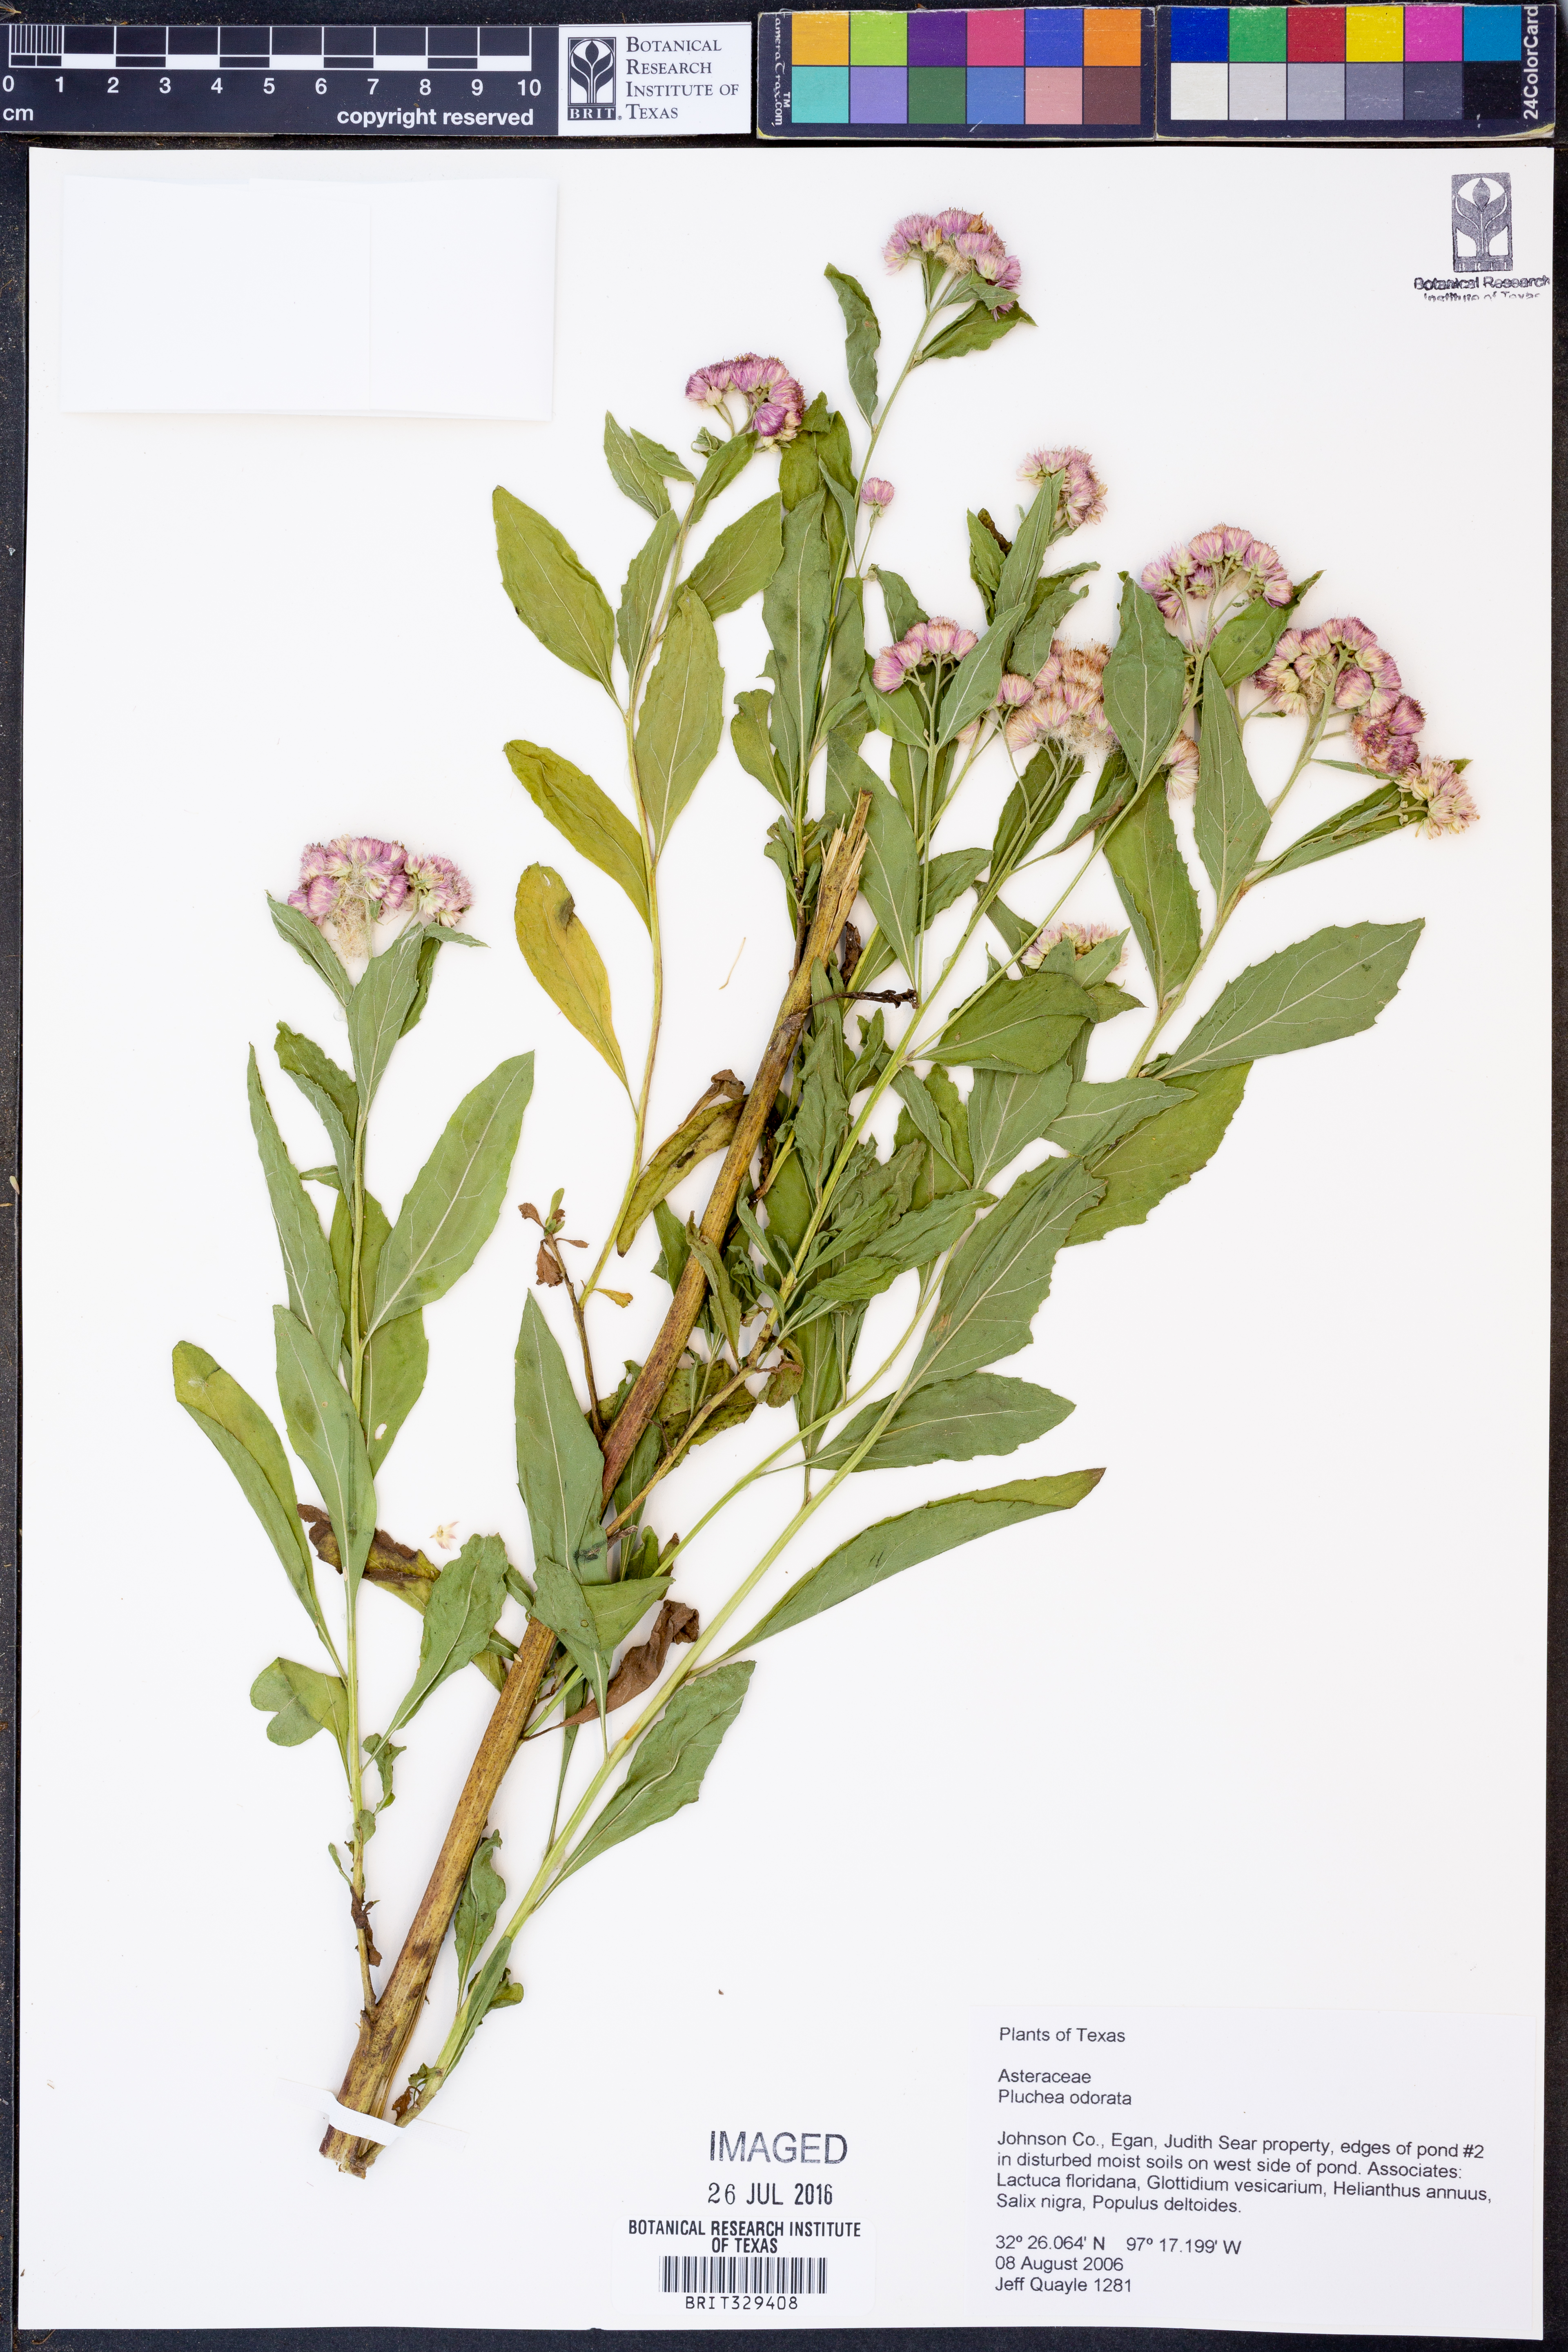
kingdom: Plantae
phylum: Tracheophyta
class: Magnoliopsida
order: Asterales
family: Asteraceae
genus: Pluchea
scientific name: Pluchea odorata
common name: Saltmarsh fleabane
